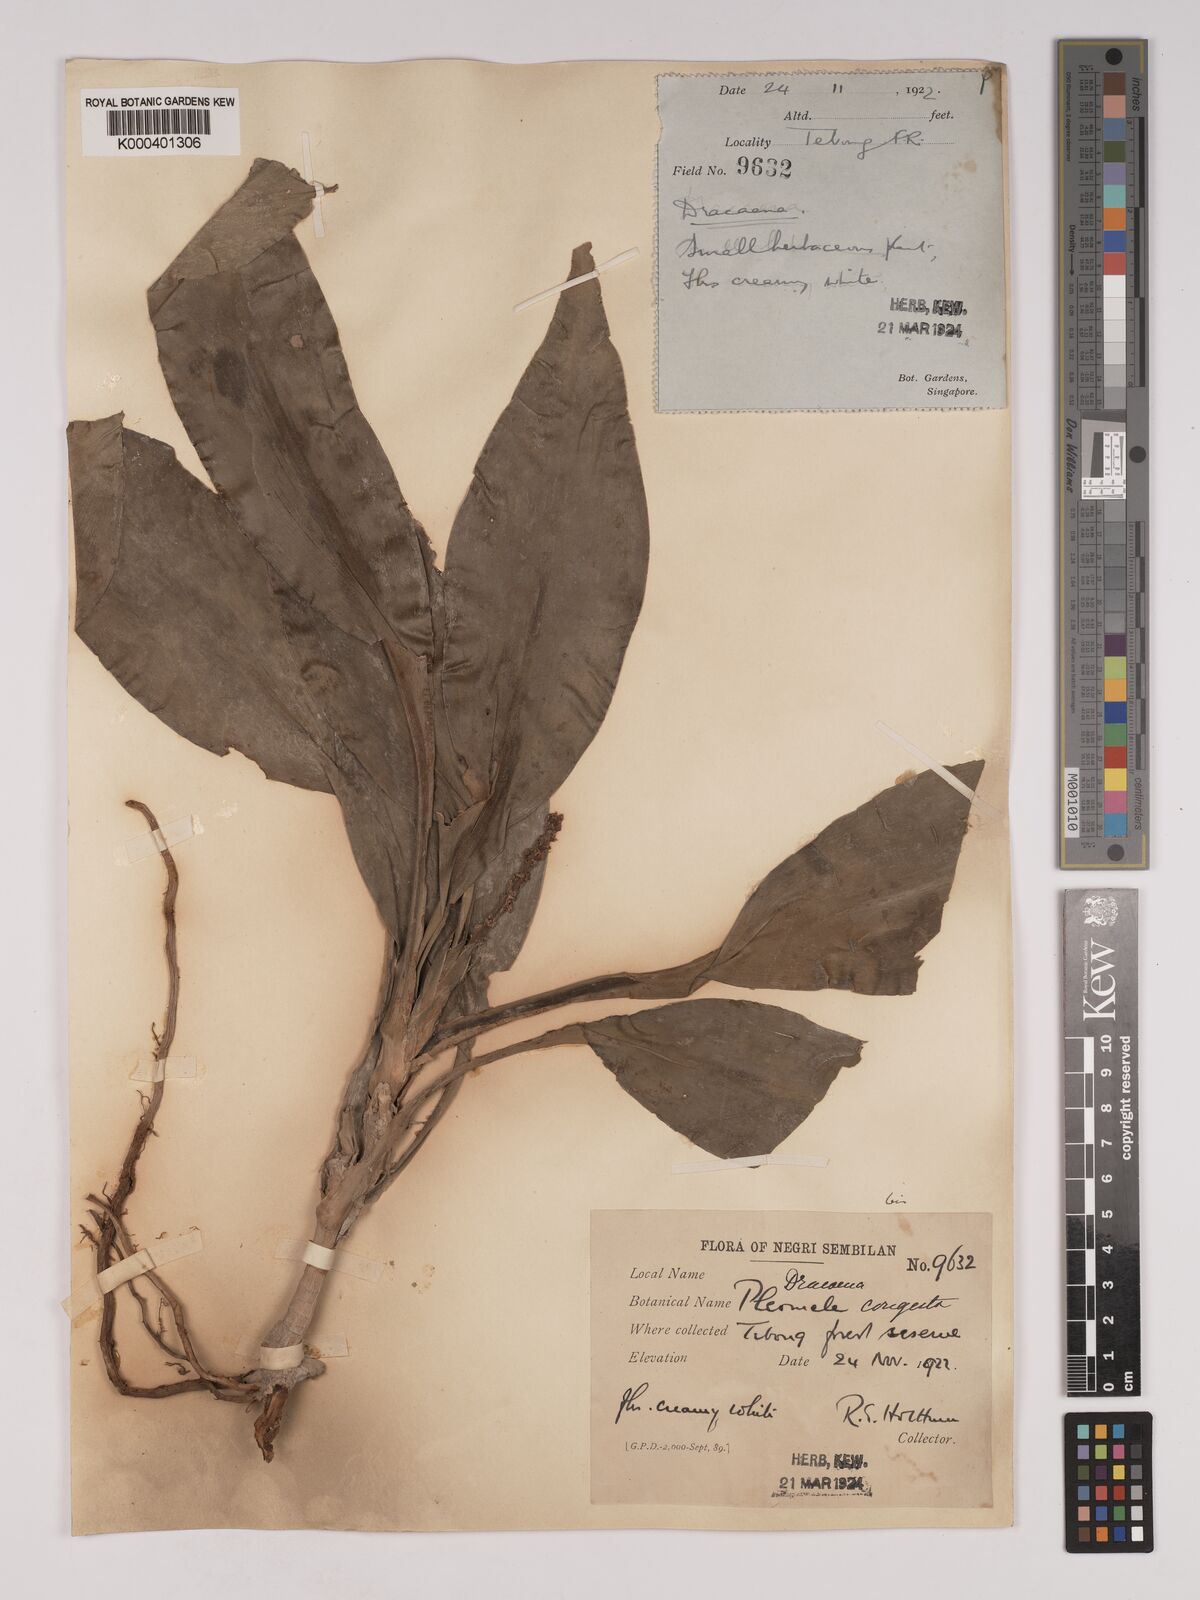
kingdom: Plantae
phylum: Tracheophyta
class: Liliopsida
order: Asparagales
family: Asparagaceae
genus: Dracaena
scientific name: Dracaena chiniana
